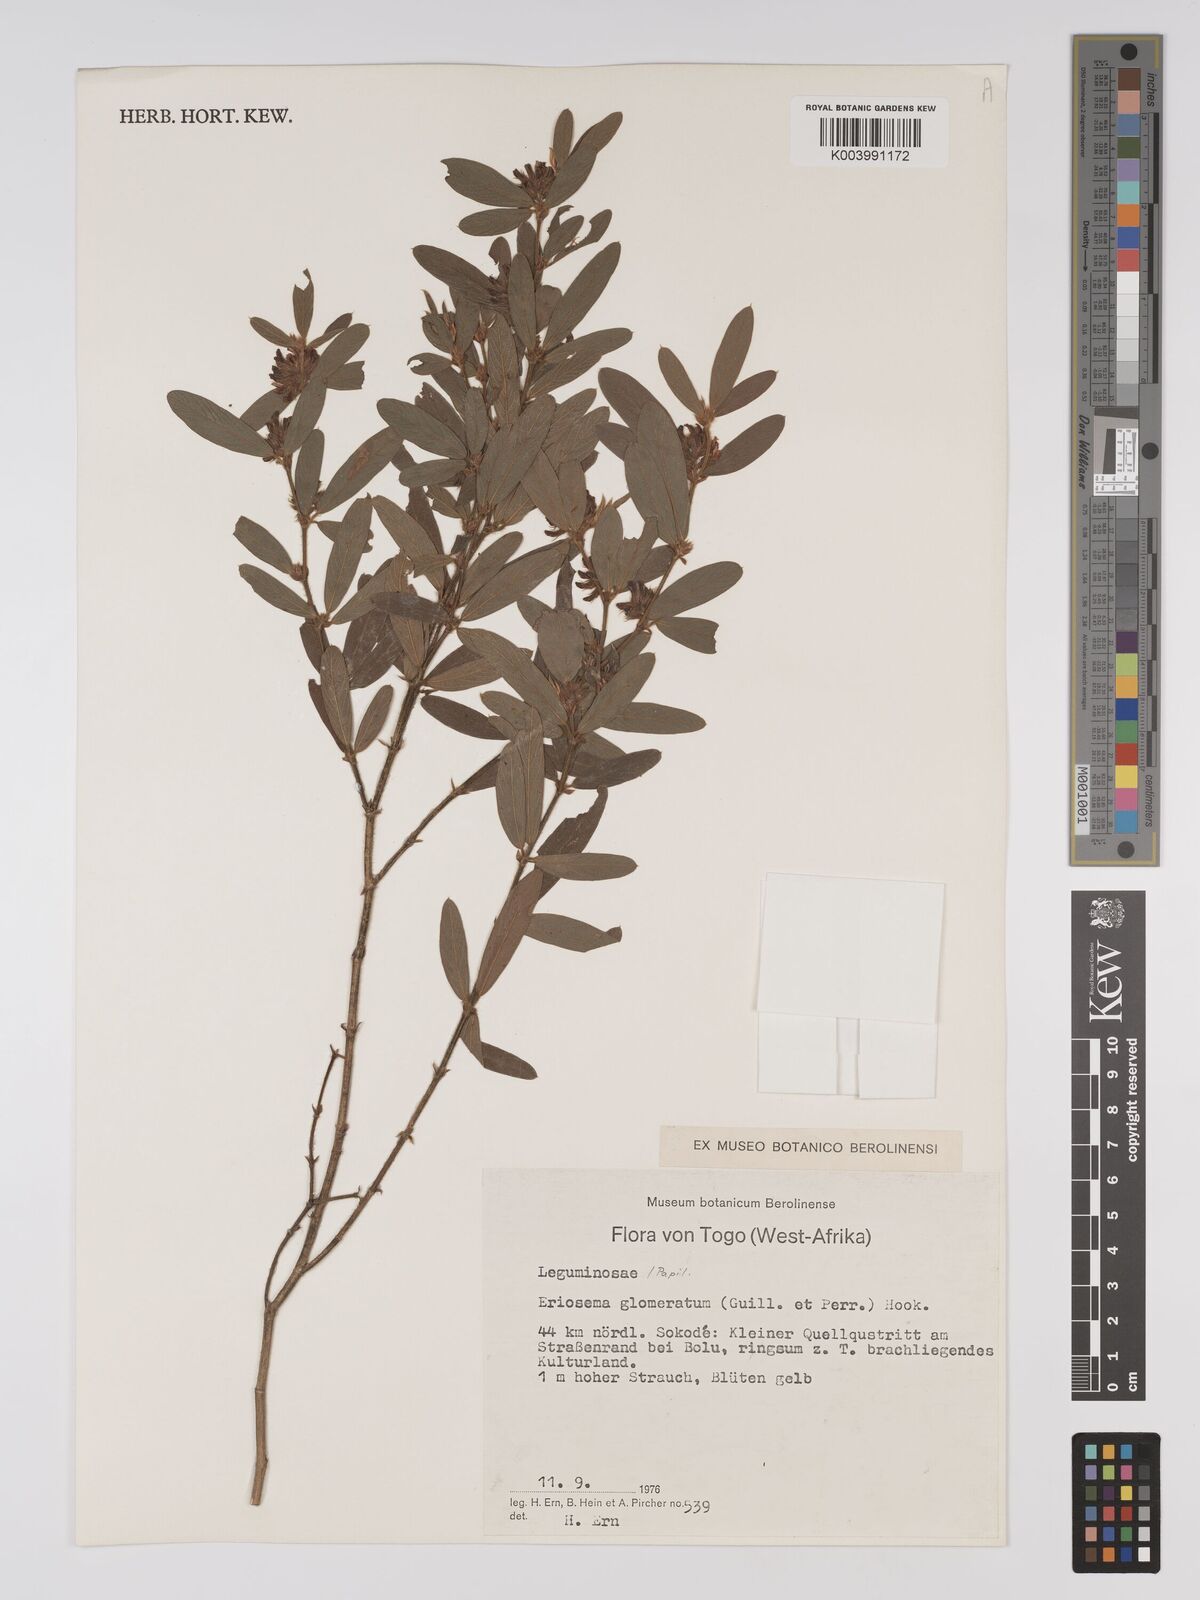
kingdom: Plantae
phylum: Tracheophyta
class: Magnoliopsida
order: Fabales
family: Fabaceae
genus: Eriosema
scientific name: Eriosema glomeratum
